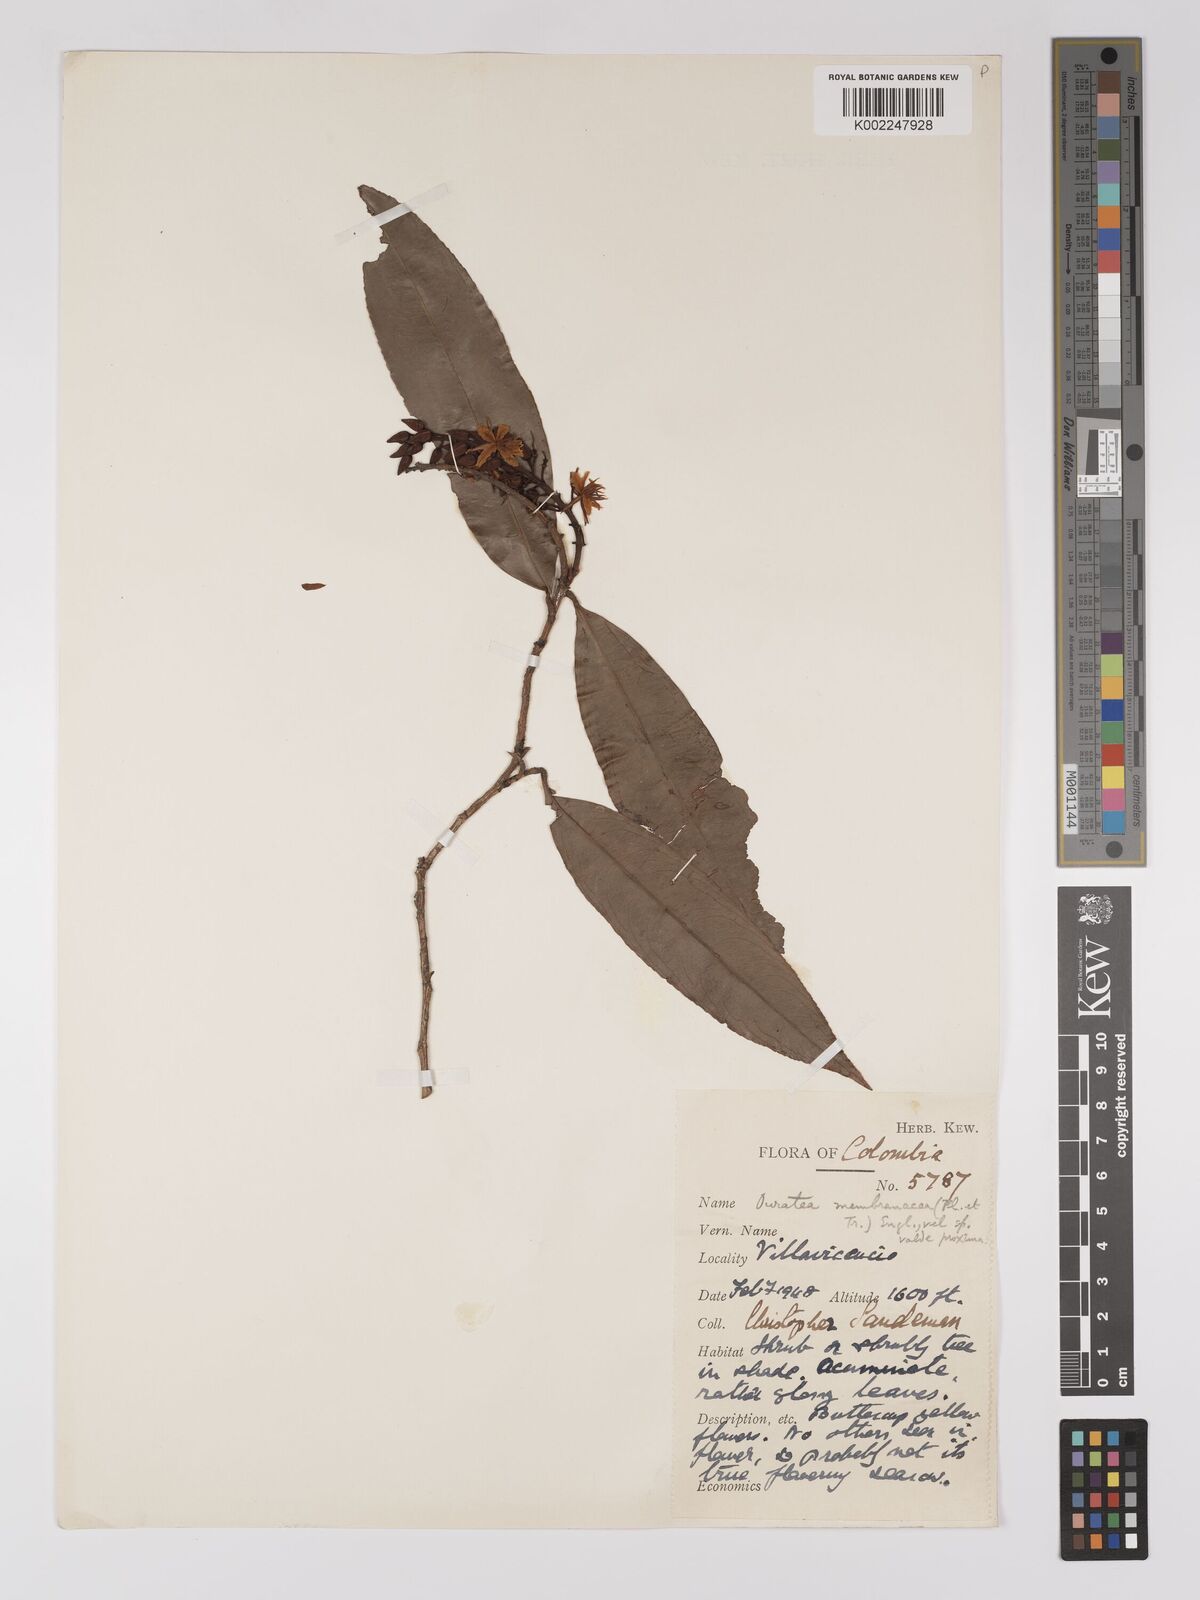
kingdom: Plantae
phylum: Tracheophyta
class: Magnoliopsida
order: Malpighiales
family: Ochnaceae
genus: Ouratea
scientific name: Ouratea membranacea
